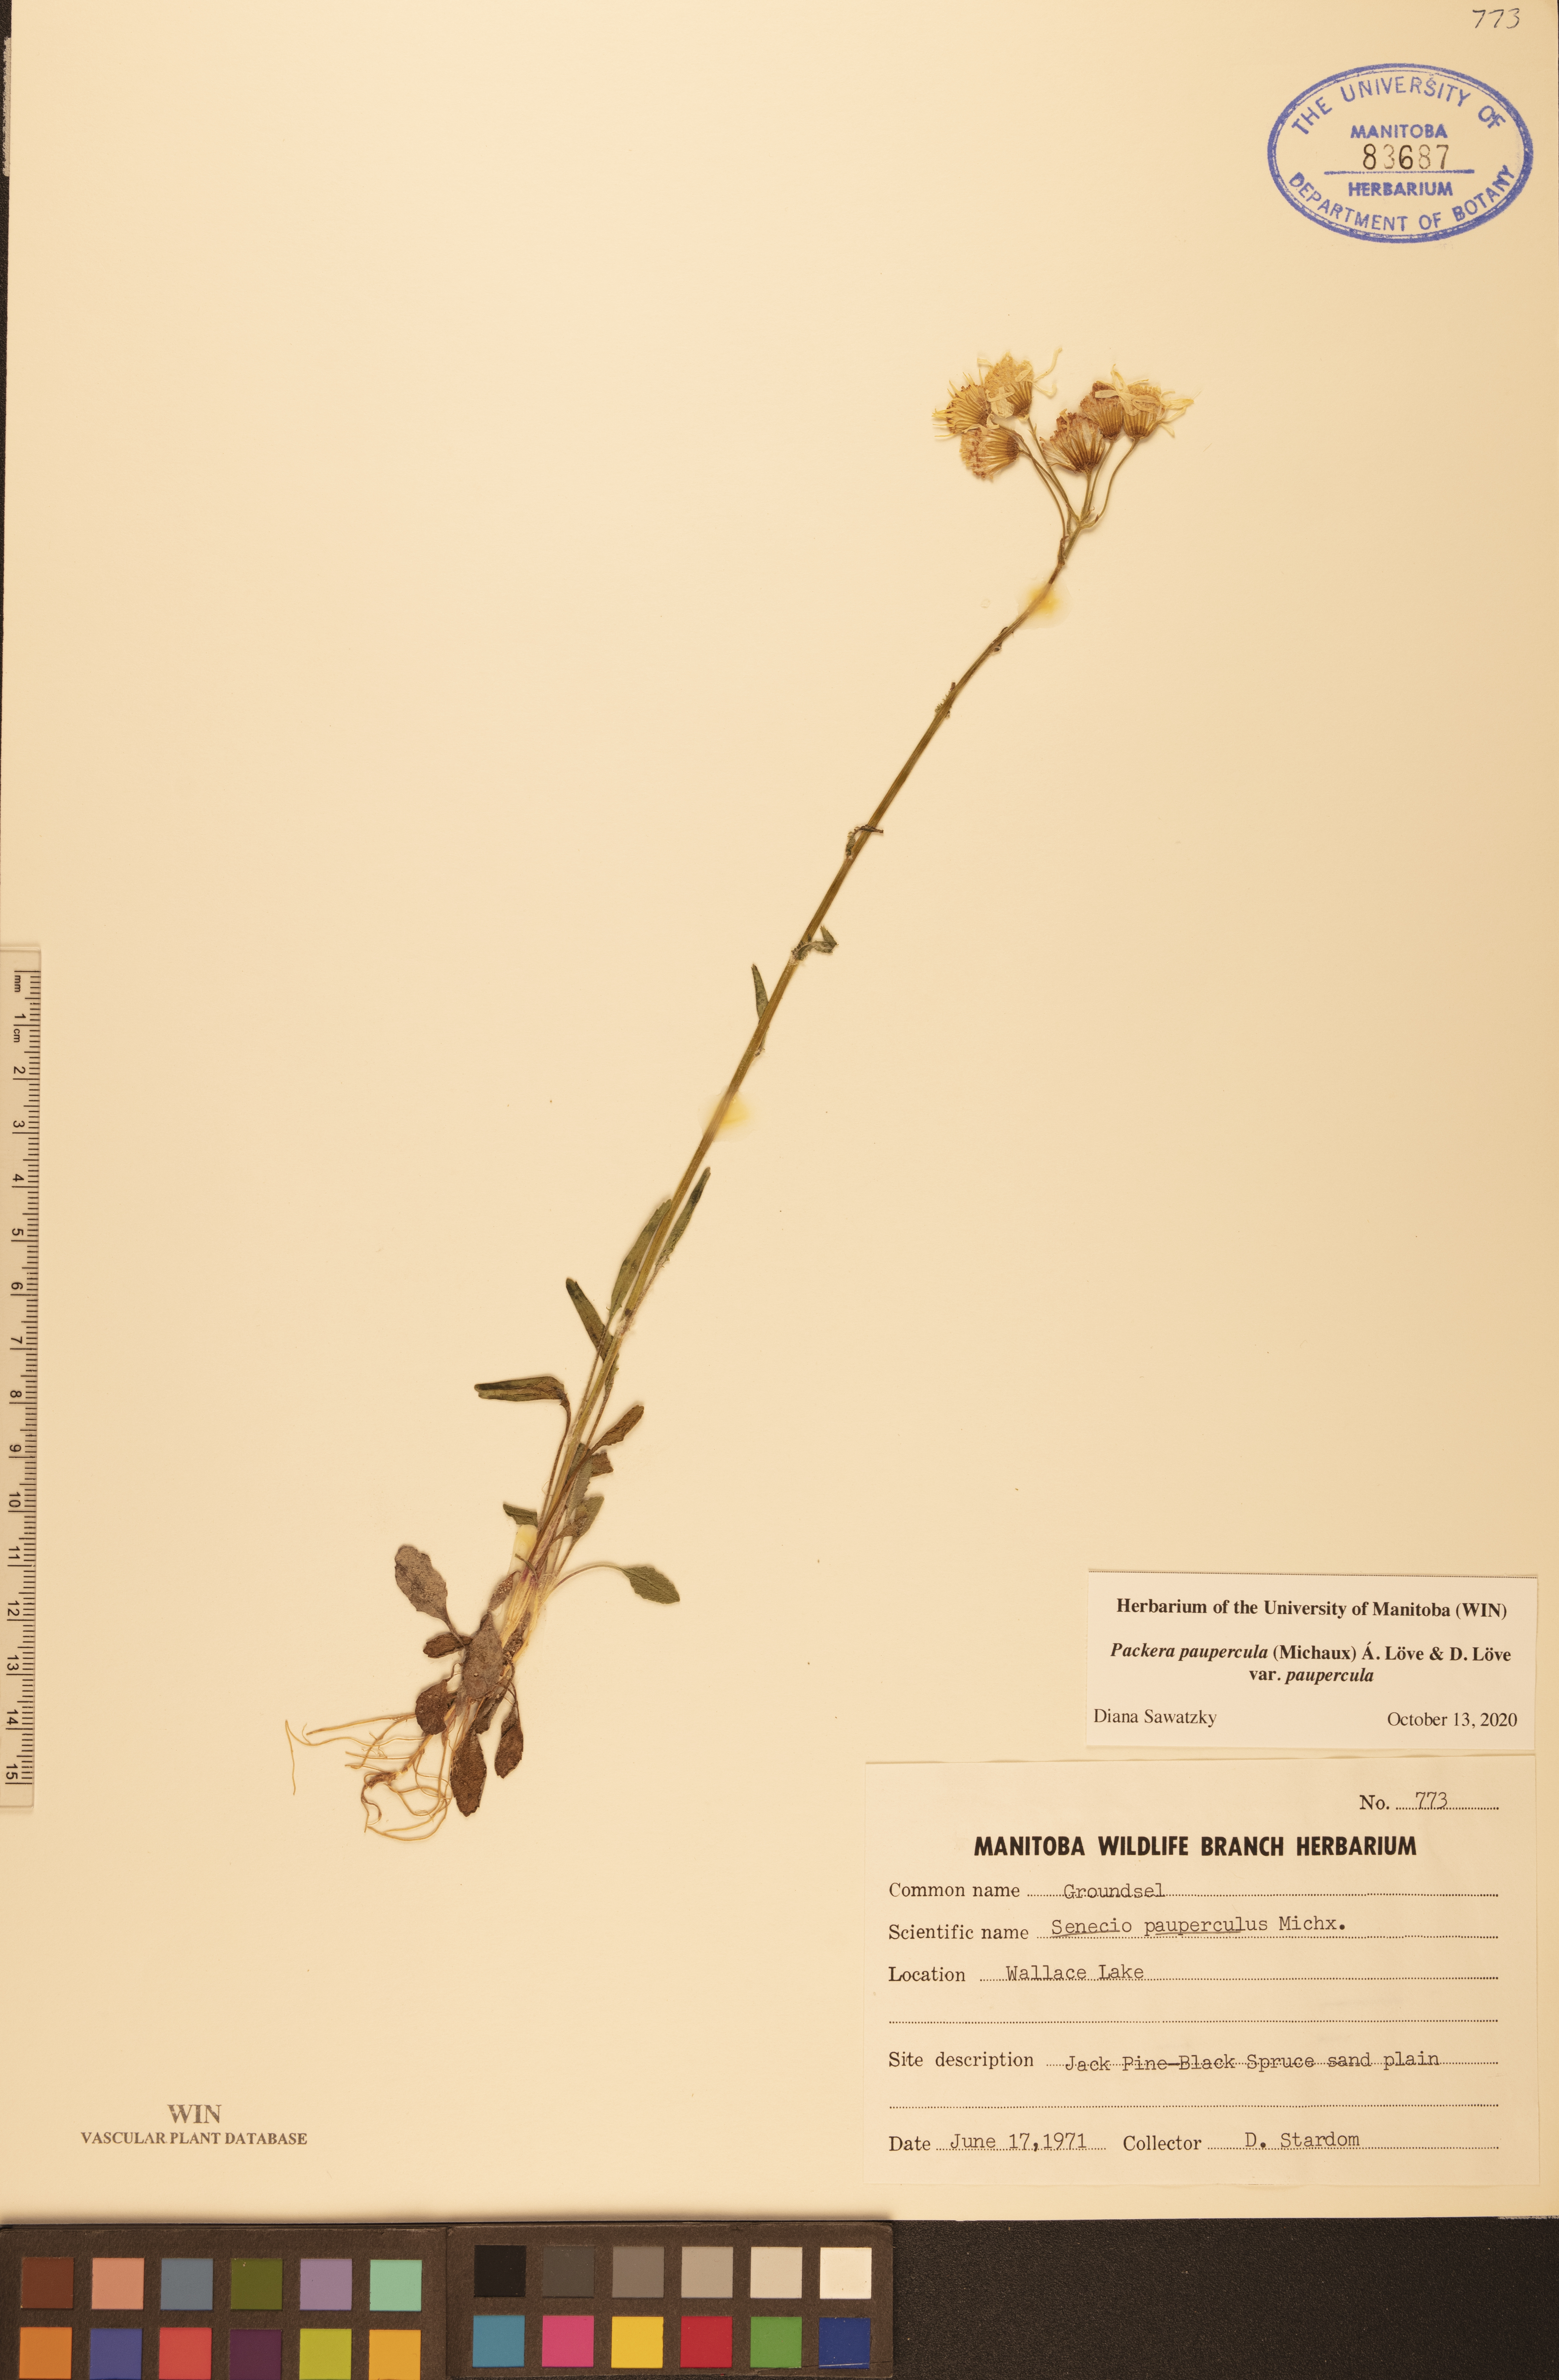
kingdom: Plantae
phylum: Tracheophyta
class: Magnoliopsida
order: Asterales
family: Asteraceae
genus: Packera
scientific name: Packera paupercula
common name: Balsam groundsel
